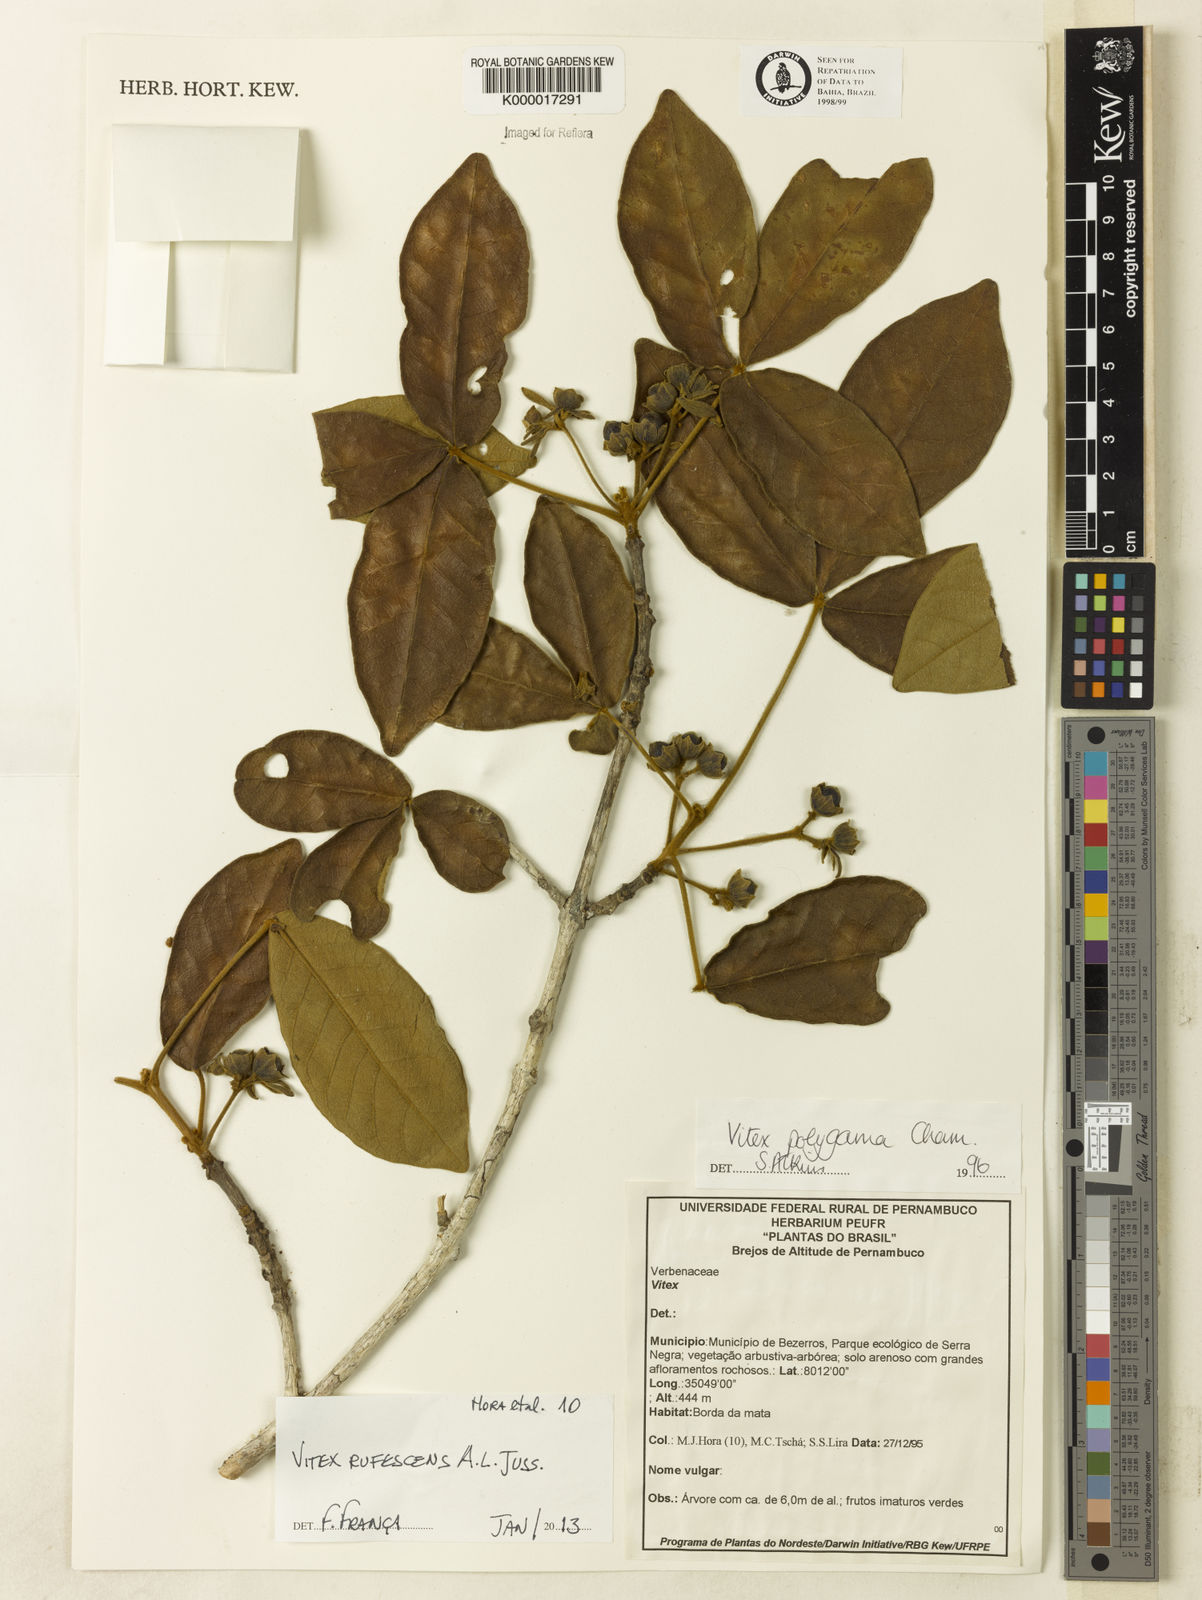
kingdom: Plantae
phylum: Tracheophyta
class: Magnoliopsida
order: Lamiales
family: Lamiaceae
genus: Vitex
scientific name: Vitex rufescens
